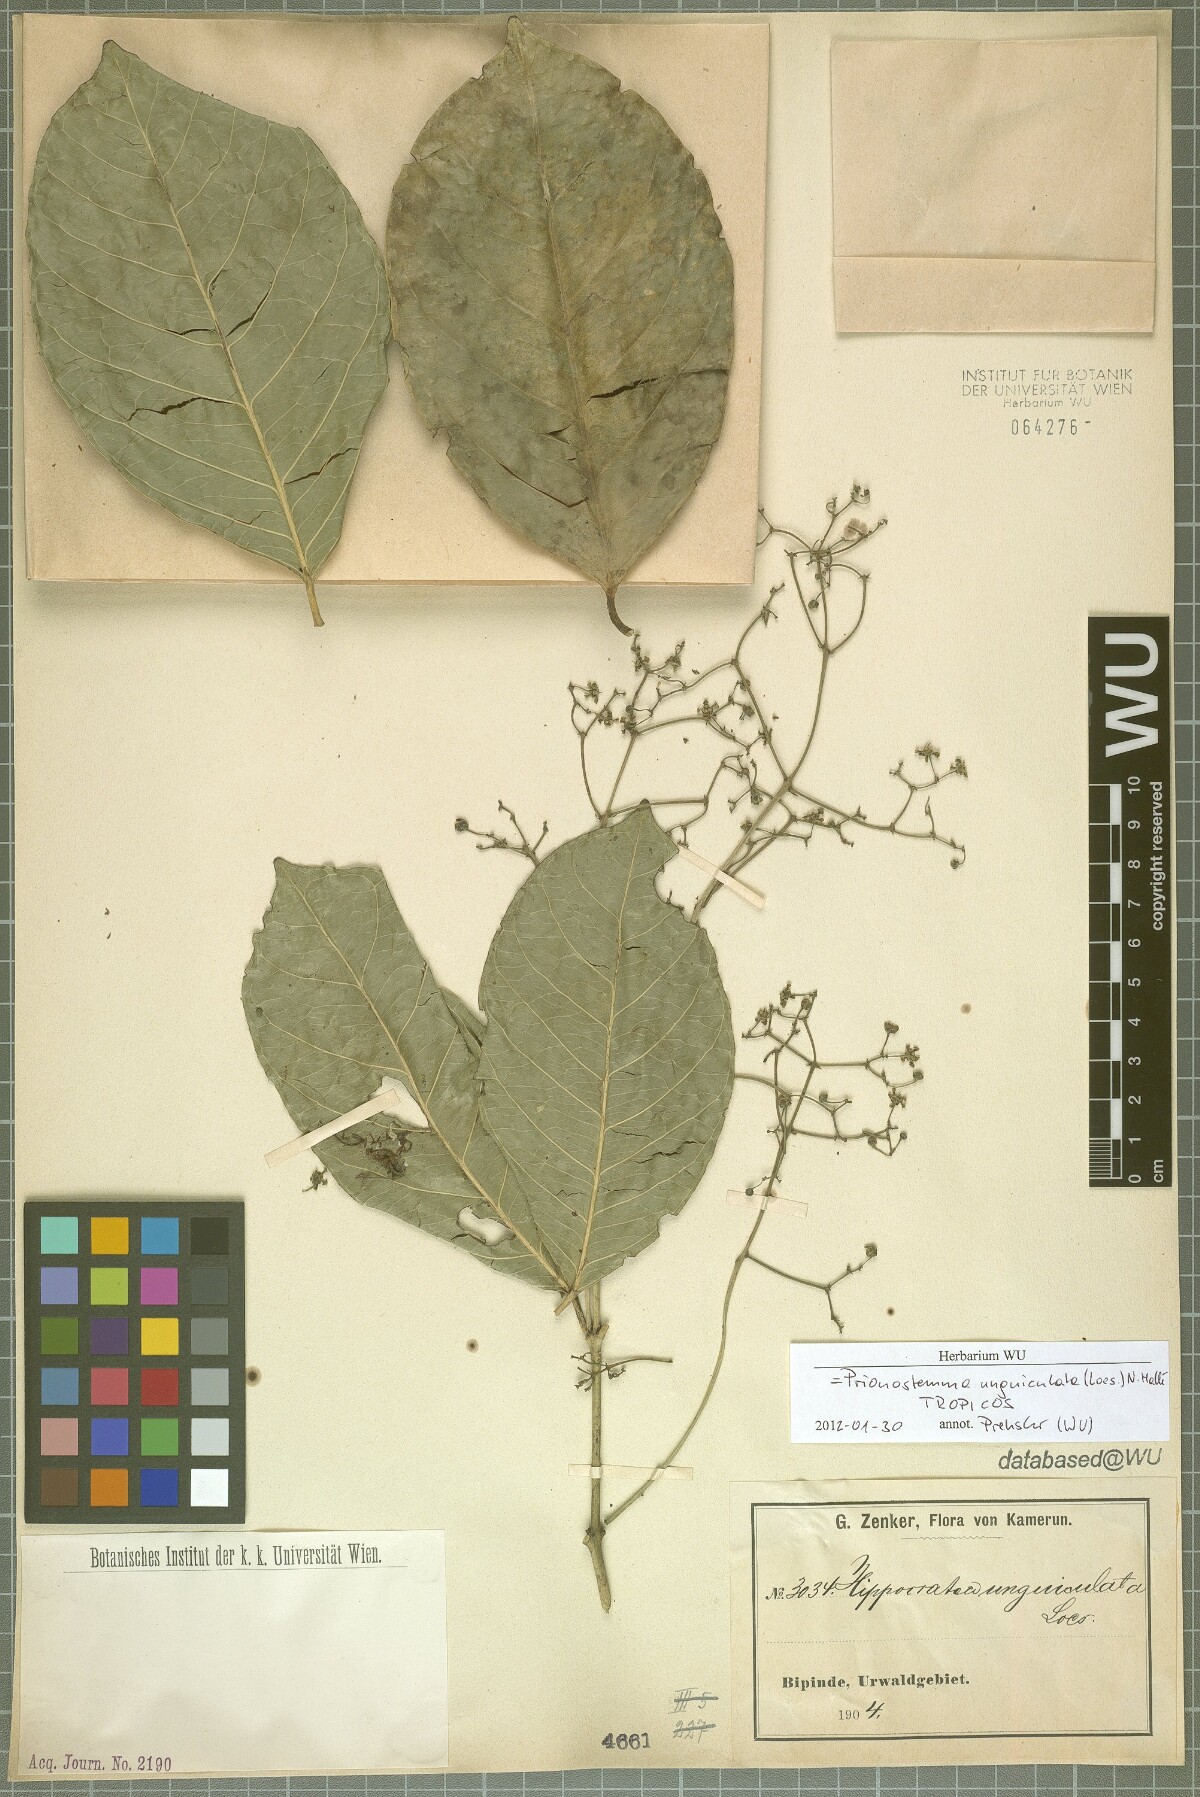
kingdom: Plantae
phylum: Tracheophyta
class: Magnoliopsida
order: Celastrales
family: Celastraceae
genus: Pristimera
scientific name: Pristimera unguiculata
